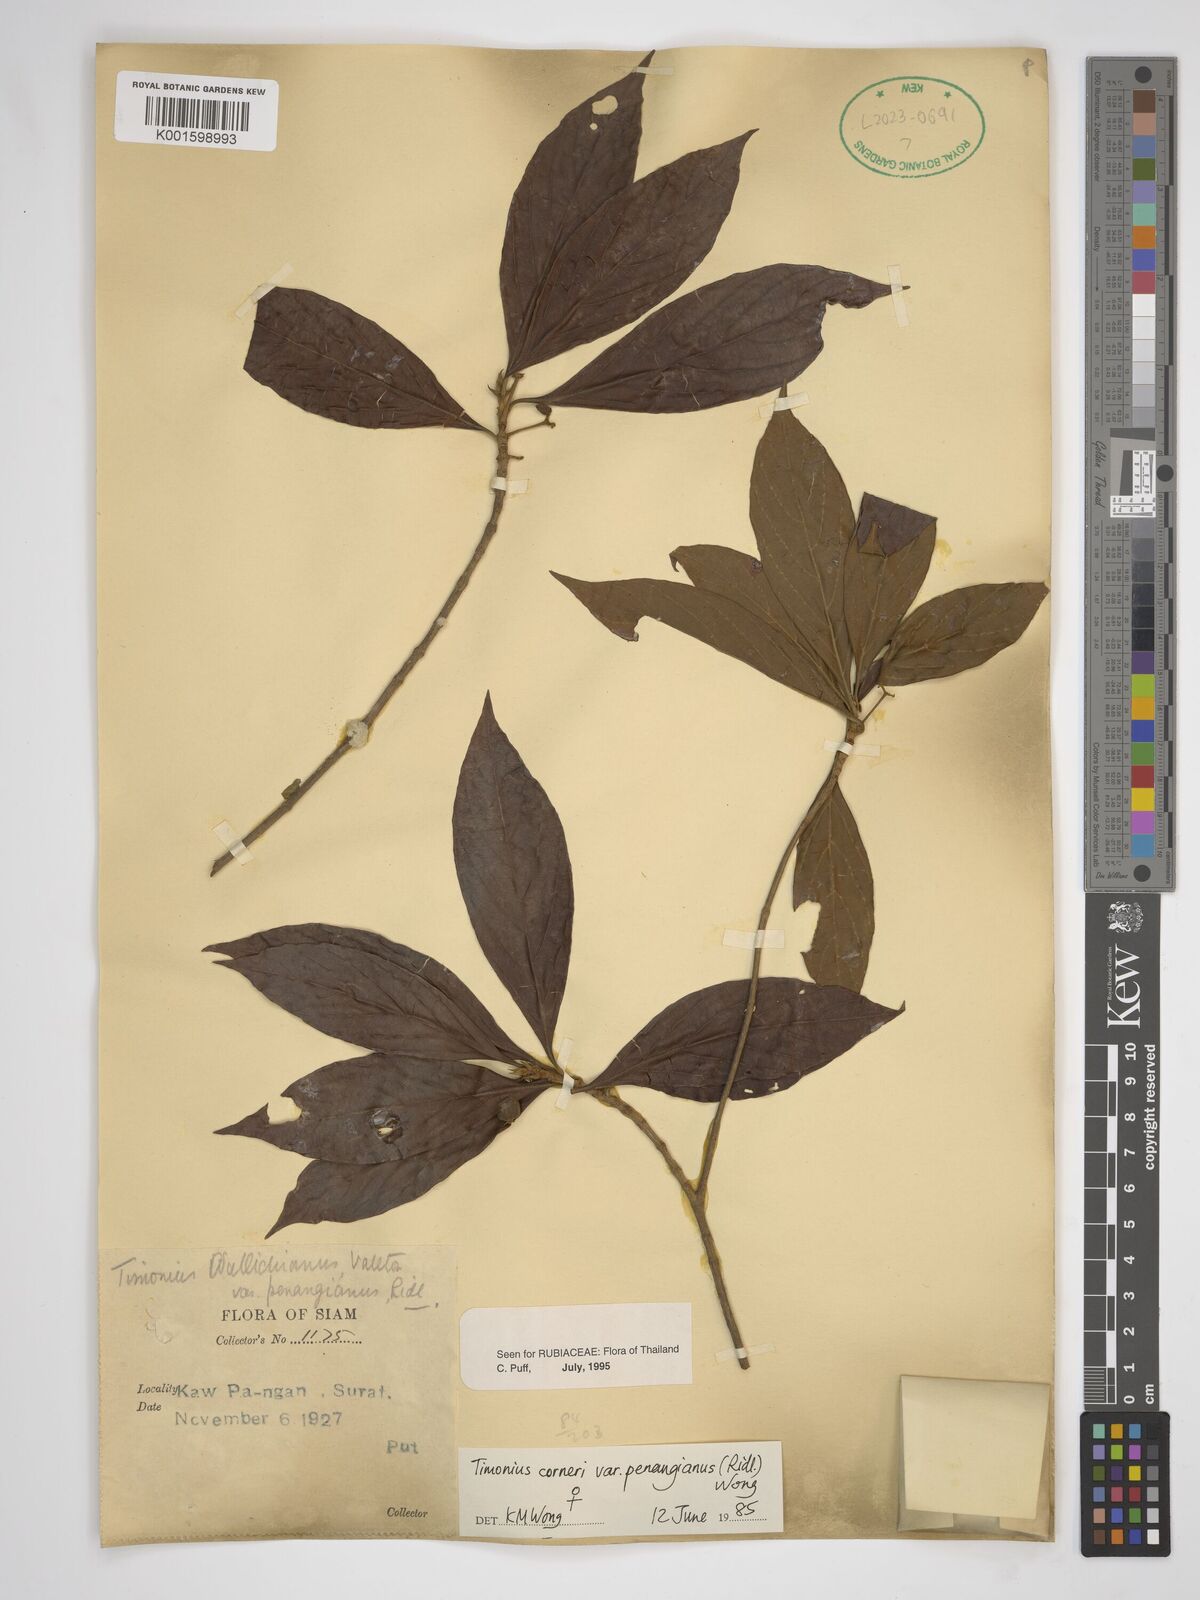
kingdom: Plantae
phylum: Tracheophyta
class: Magnoliopsida
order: Gentianales
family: Rubiaceae
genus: Timonius
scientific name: Timonius corneri
